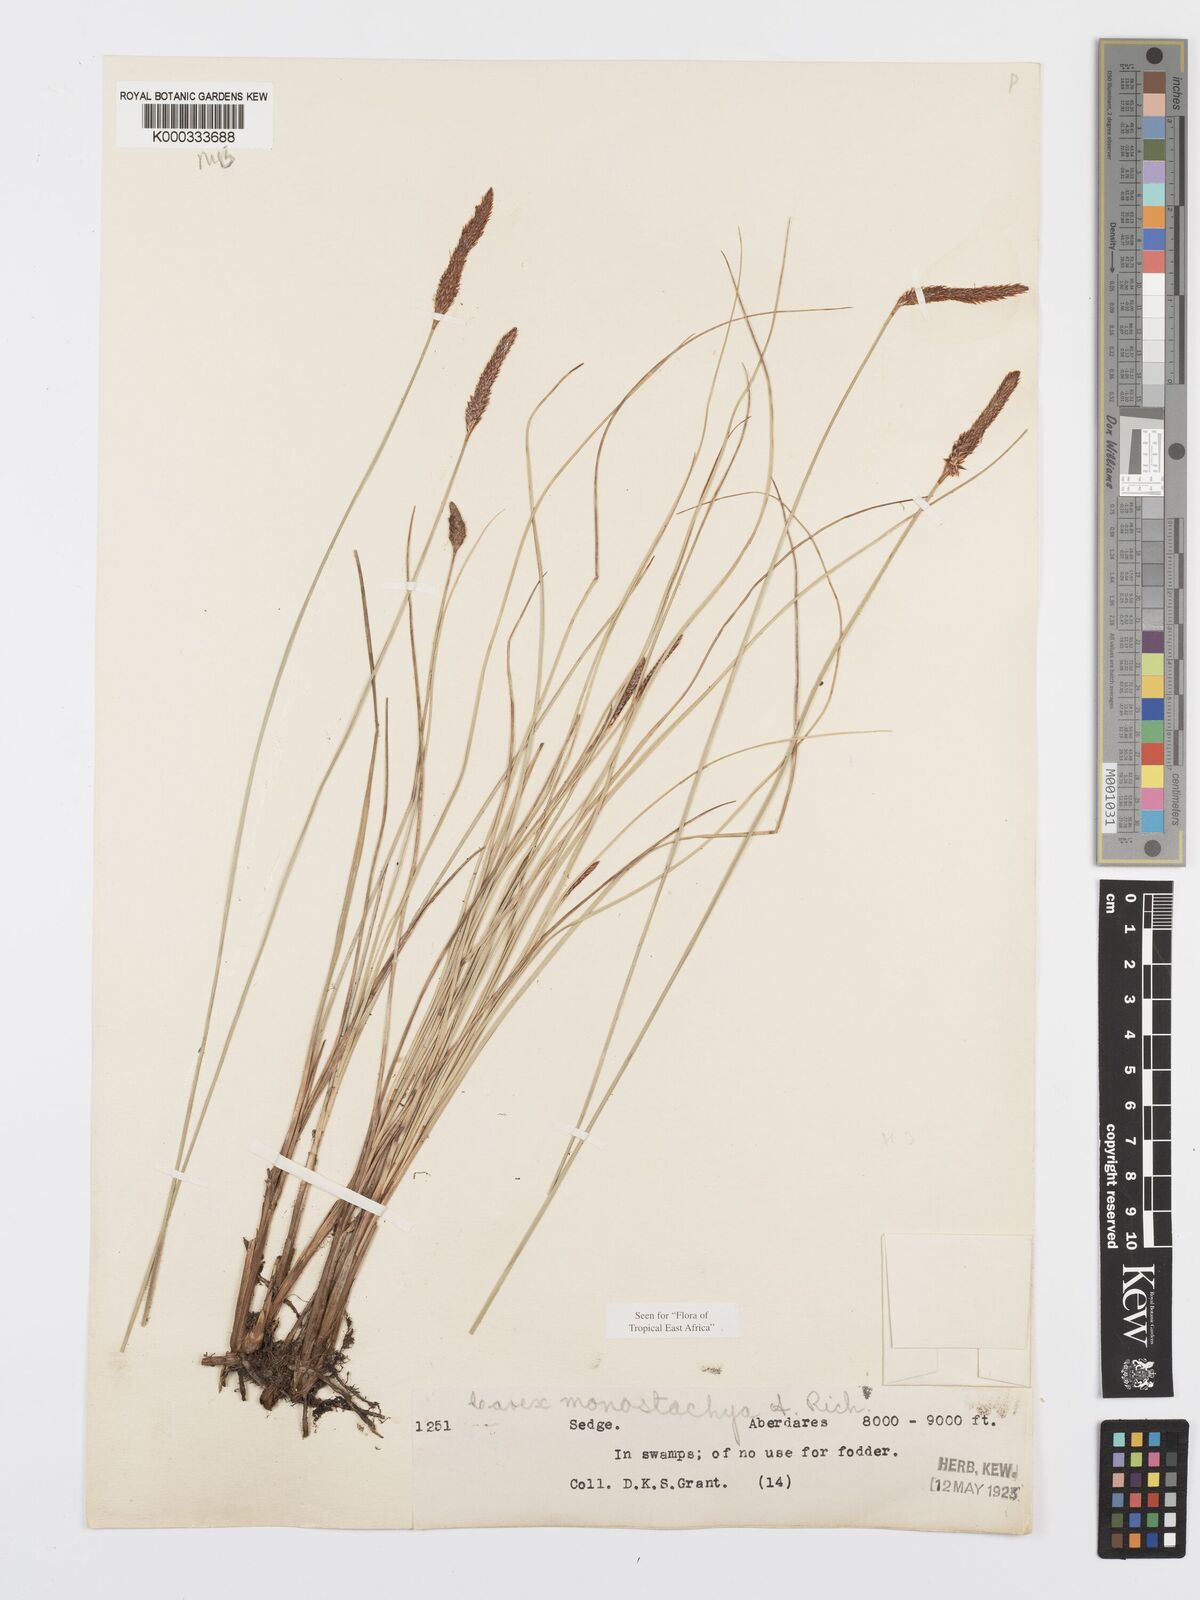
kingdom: Plantae
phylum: Tracheophyta
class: Liliopsida
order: Poales
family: Cyperaceae
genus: Carex
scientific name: Carex monostachya
